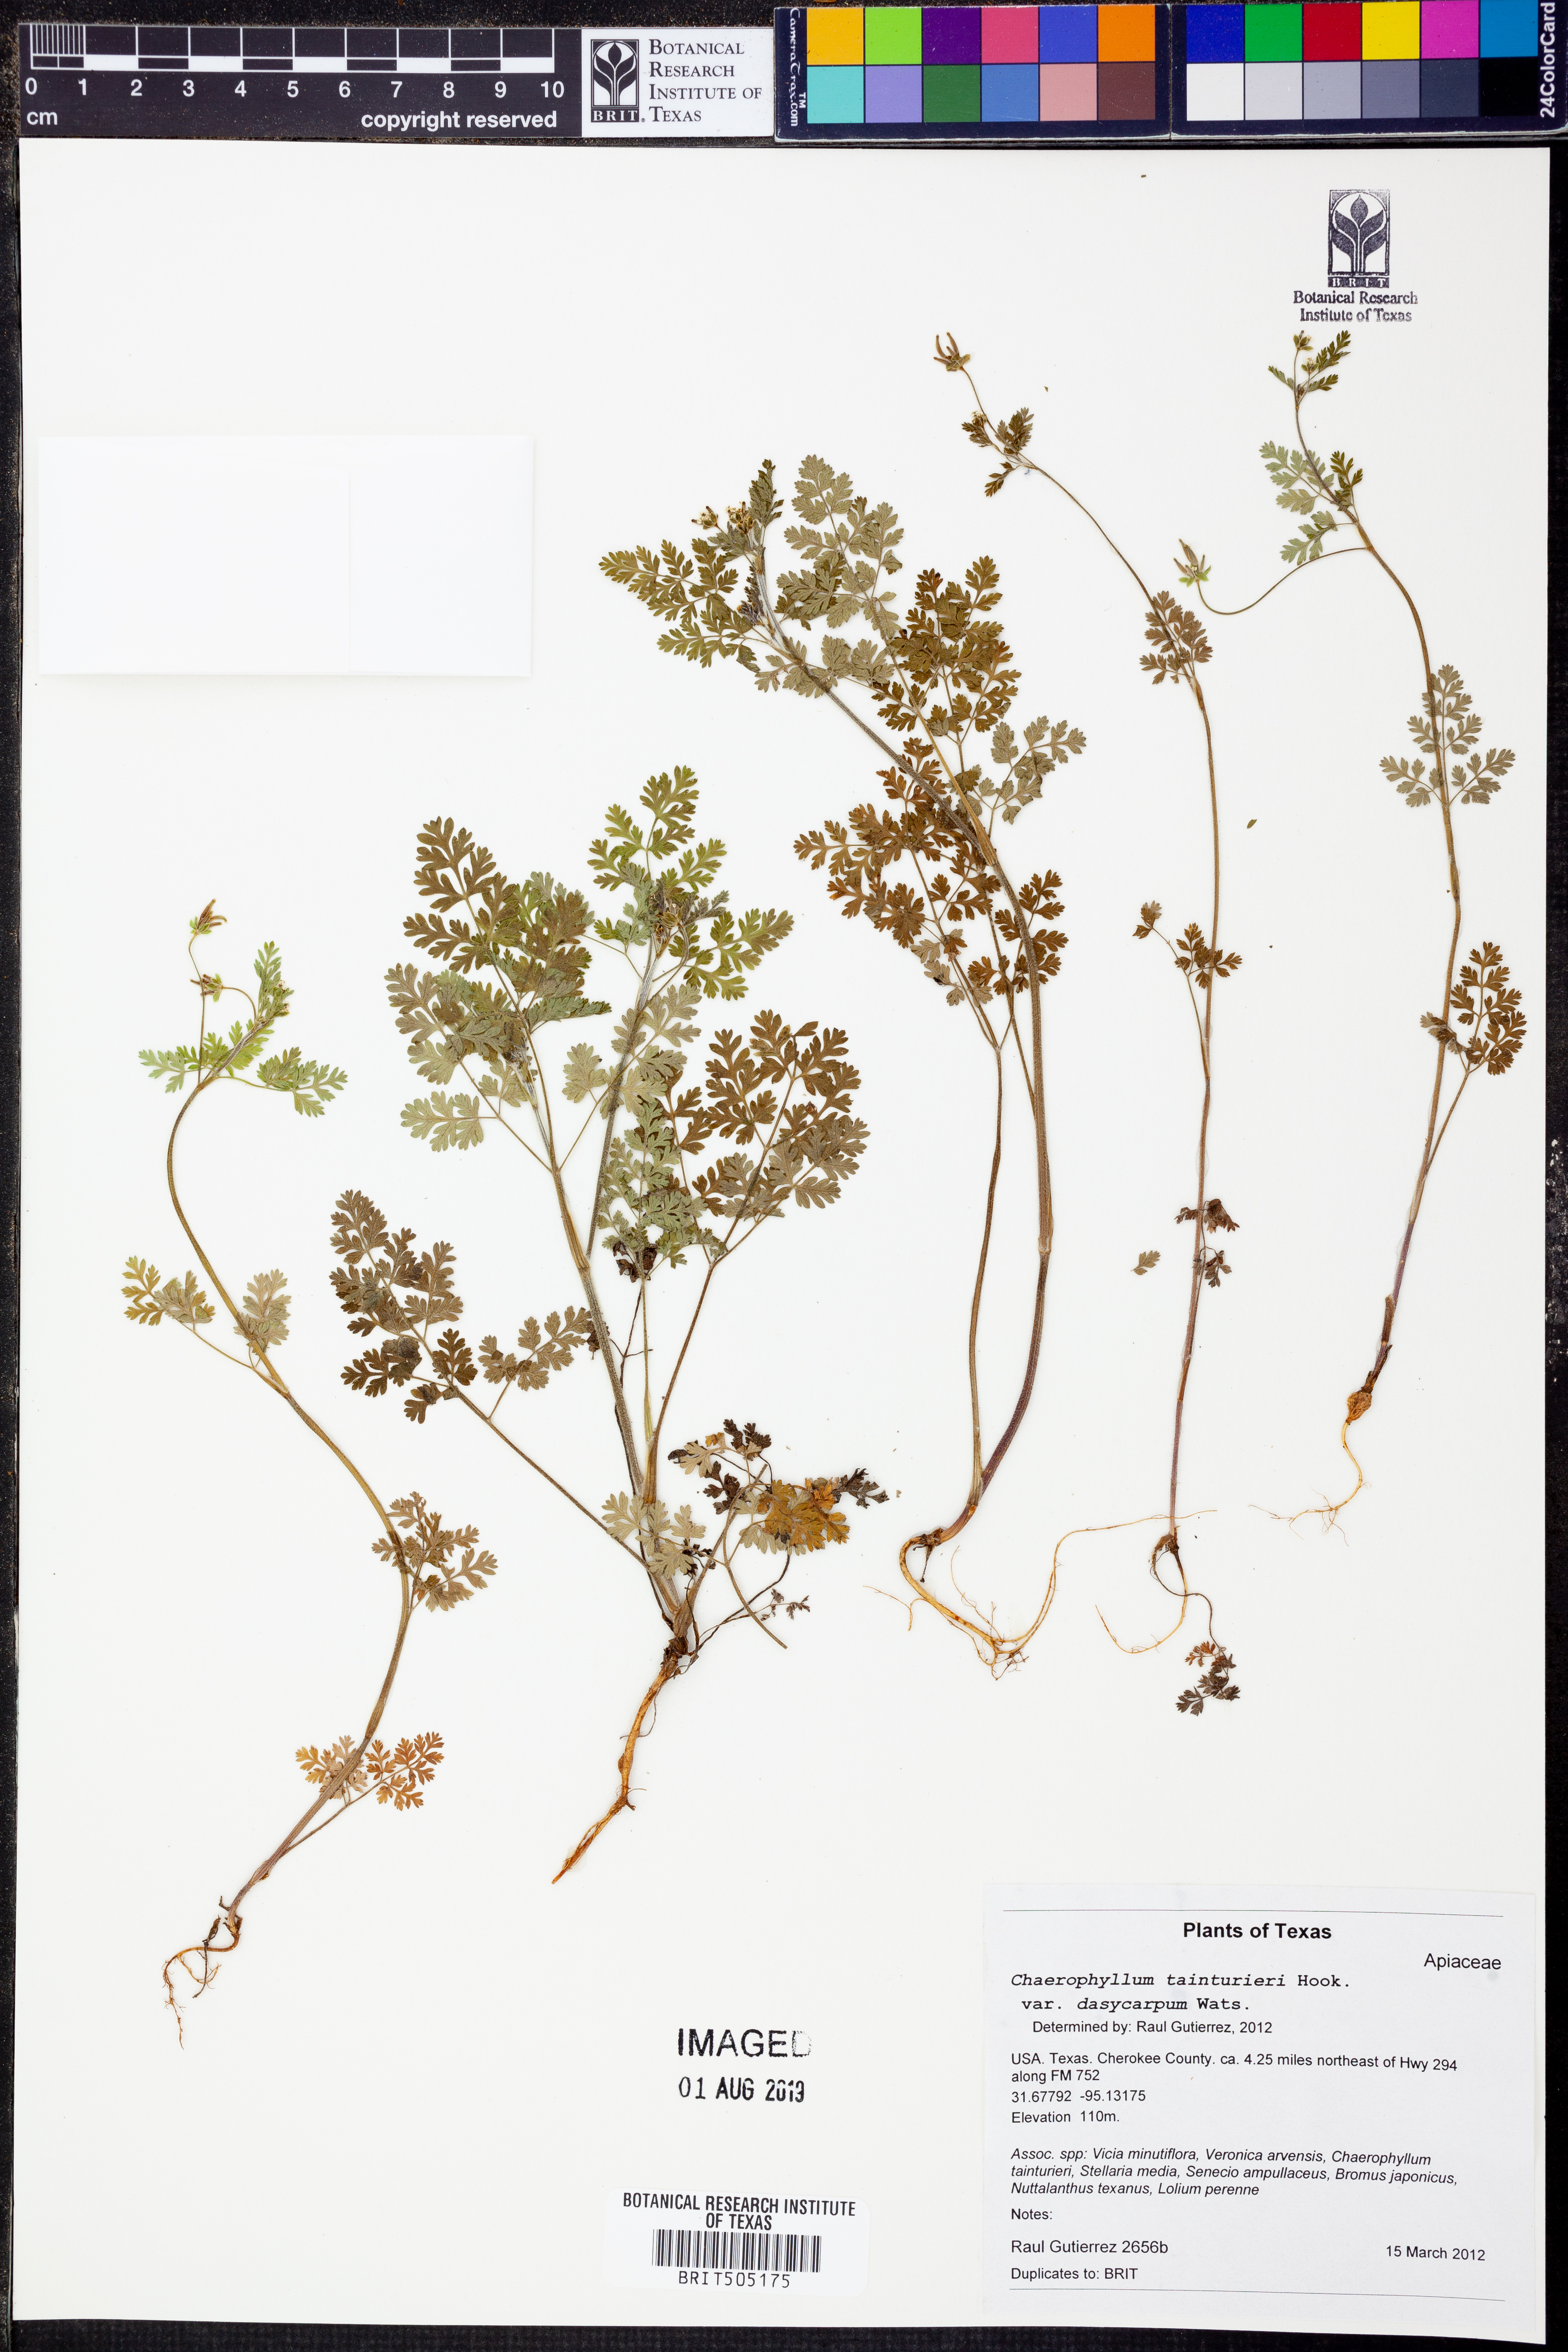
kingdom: Plantae
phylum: Tracheophyta
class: Magnoliopsida
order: Apiales
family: Apiaceae
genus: Chaerophyllum
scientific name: Chaerophyllum tainturieri
